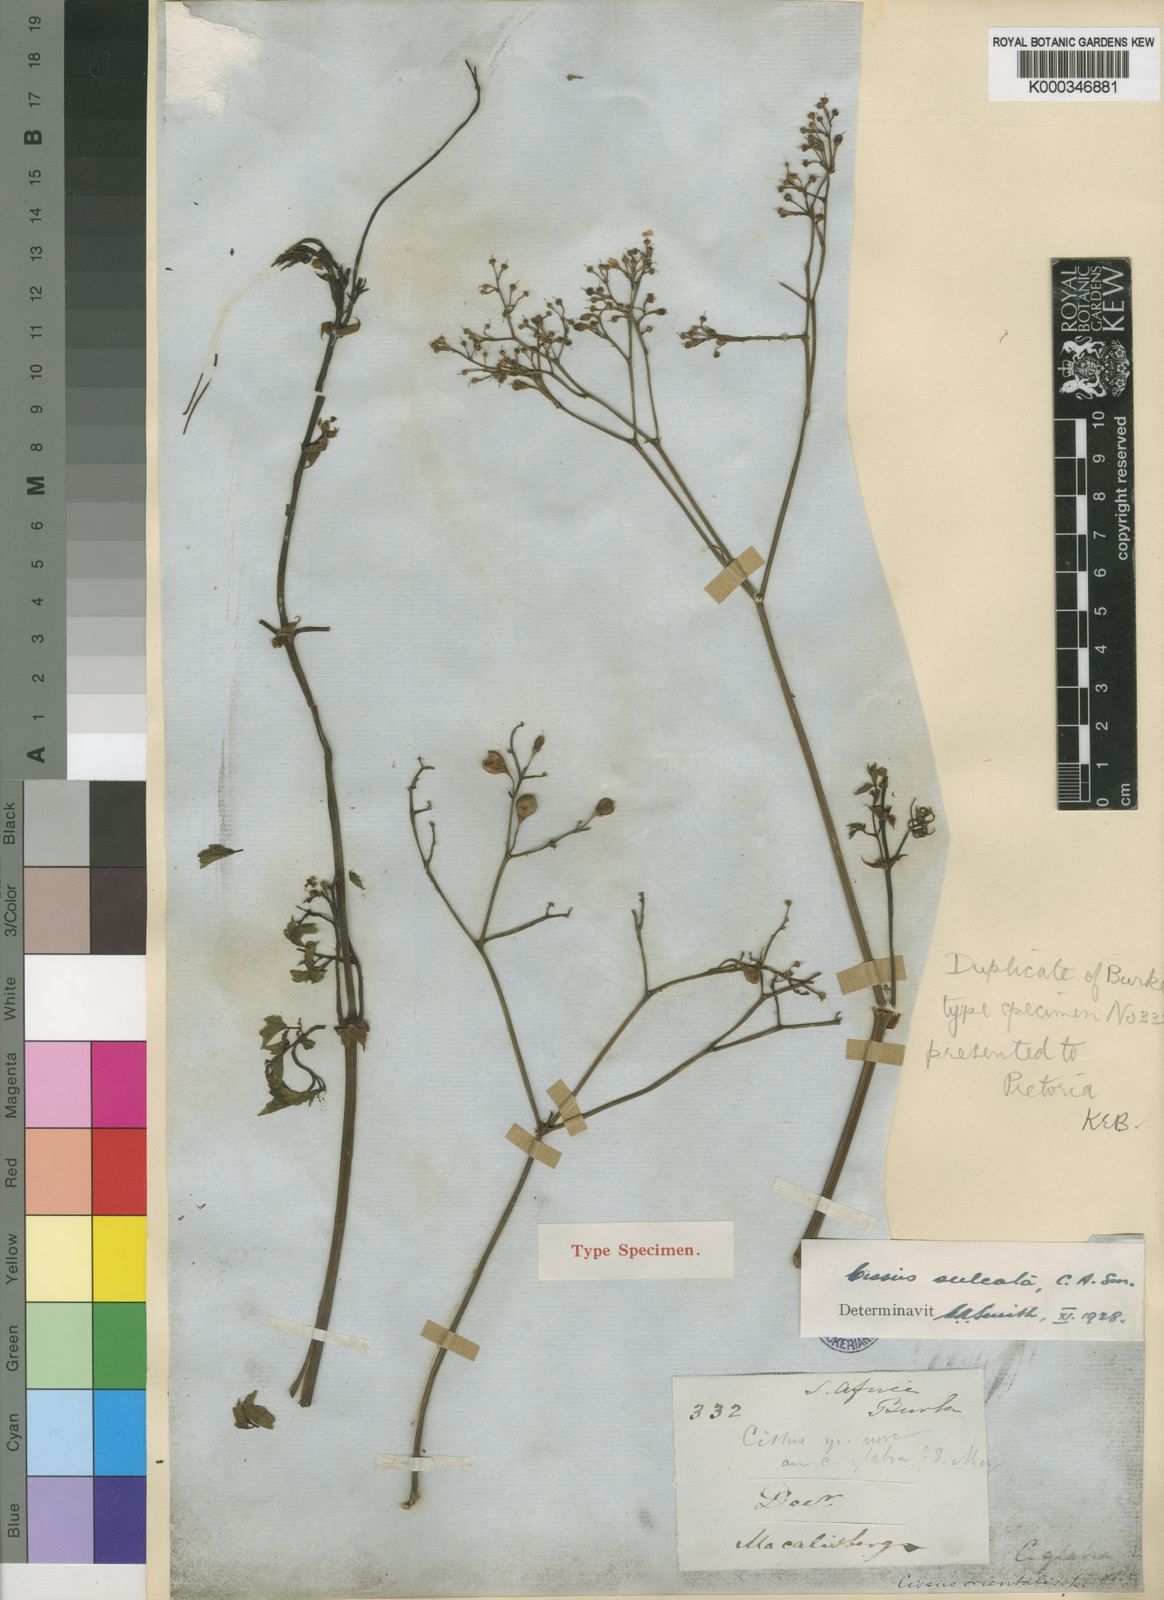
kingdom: Plantae
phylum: Tracheophyta
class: Magnoliopsida
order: Vitales
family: Vitaceae
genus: Cyphostemma
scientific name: Cyphostemma sulcatum
